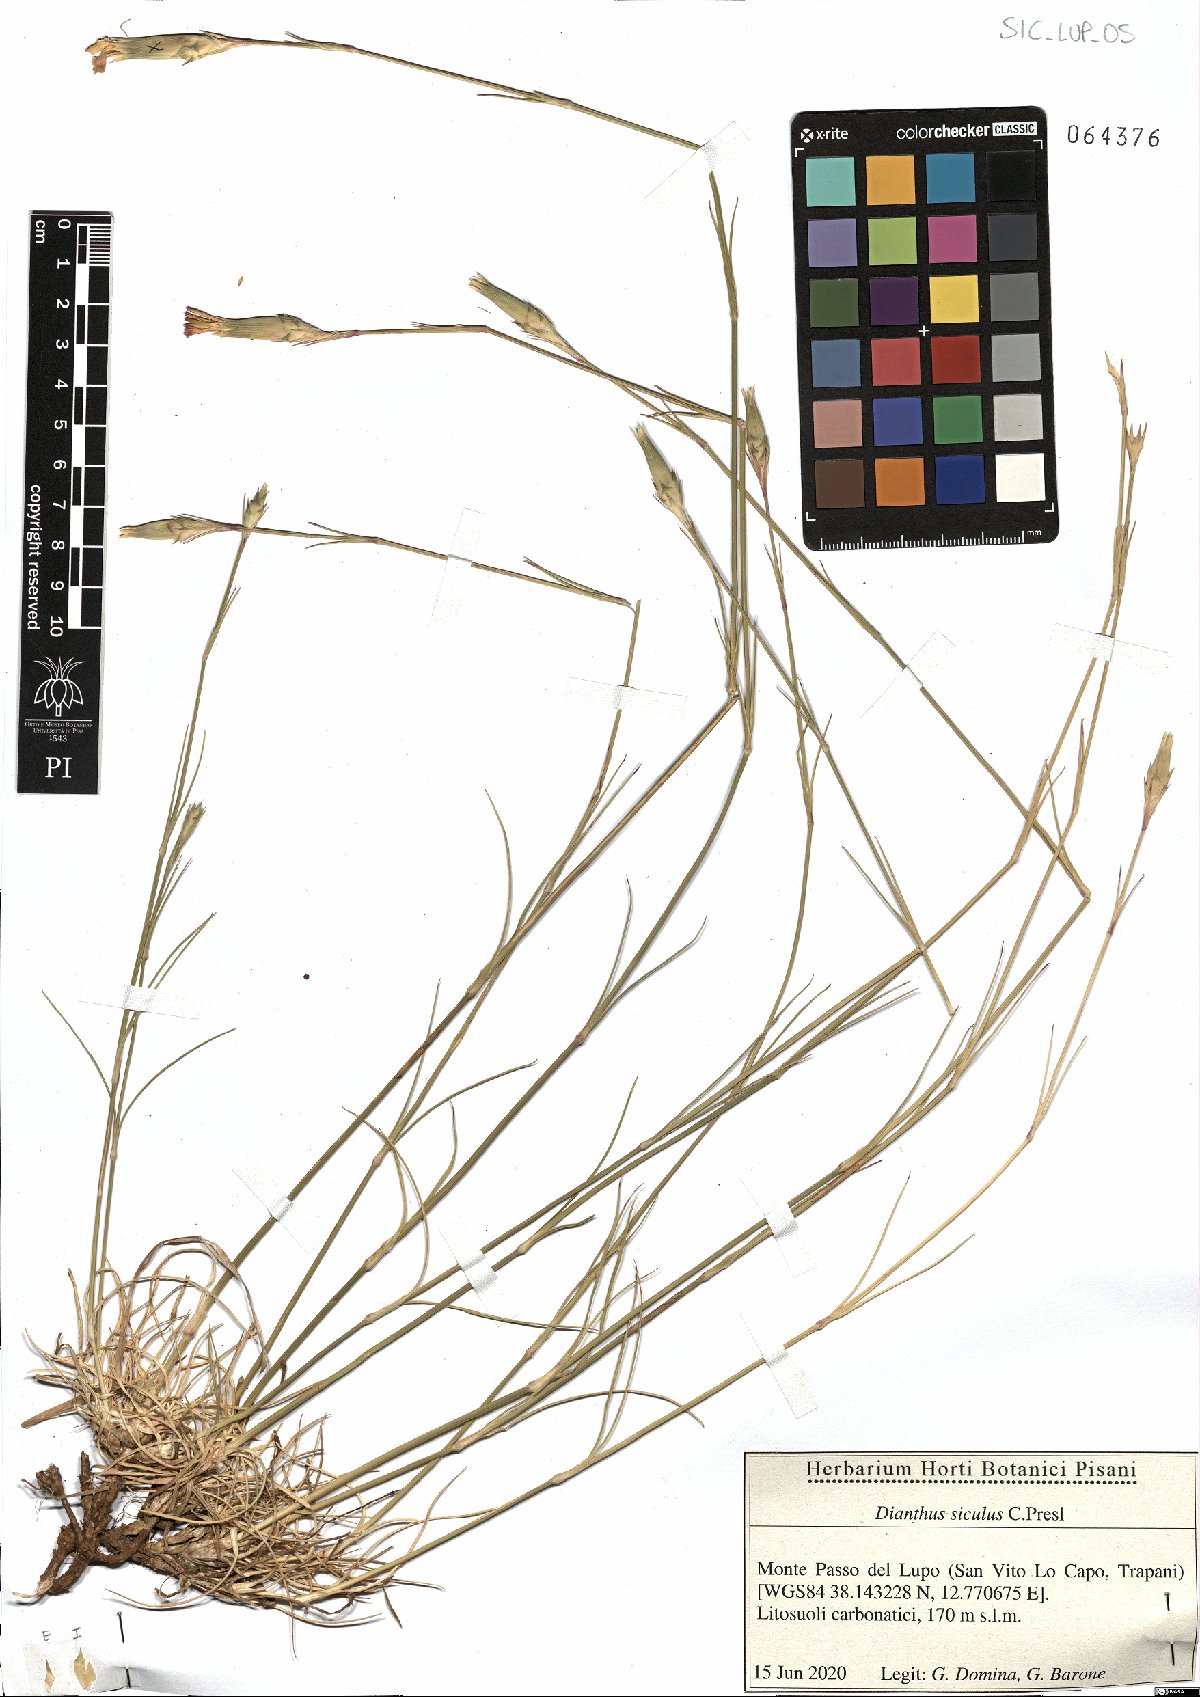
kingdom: Plantae
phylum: Tracheophyta
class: Magnoliopsida
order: Caryophyllales
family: Caryophyllaceae
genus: Dianthus
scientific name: Dianthus siculus
